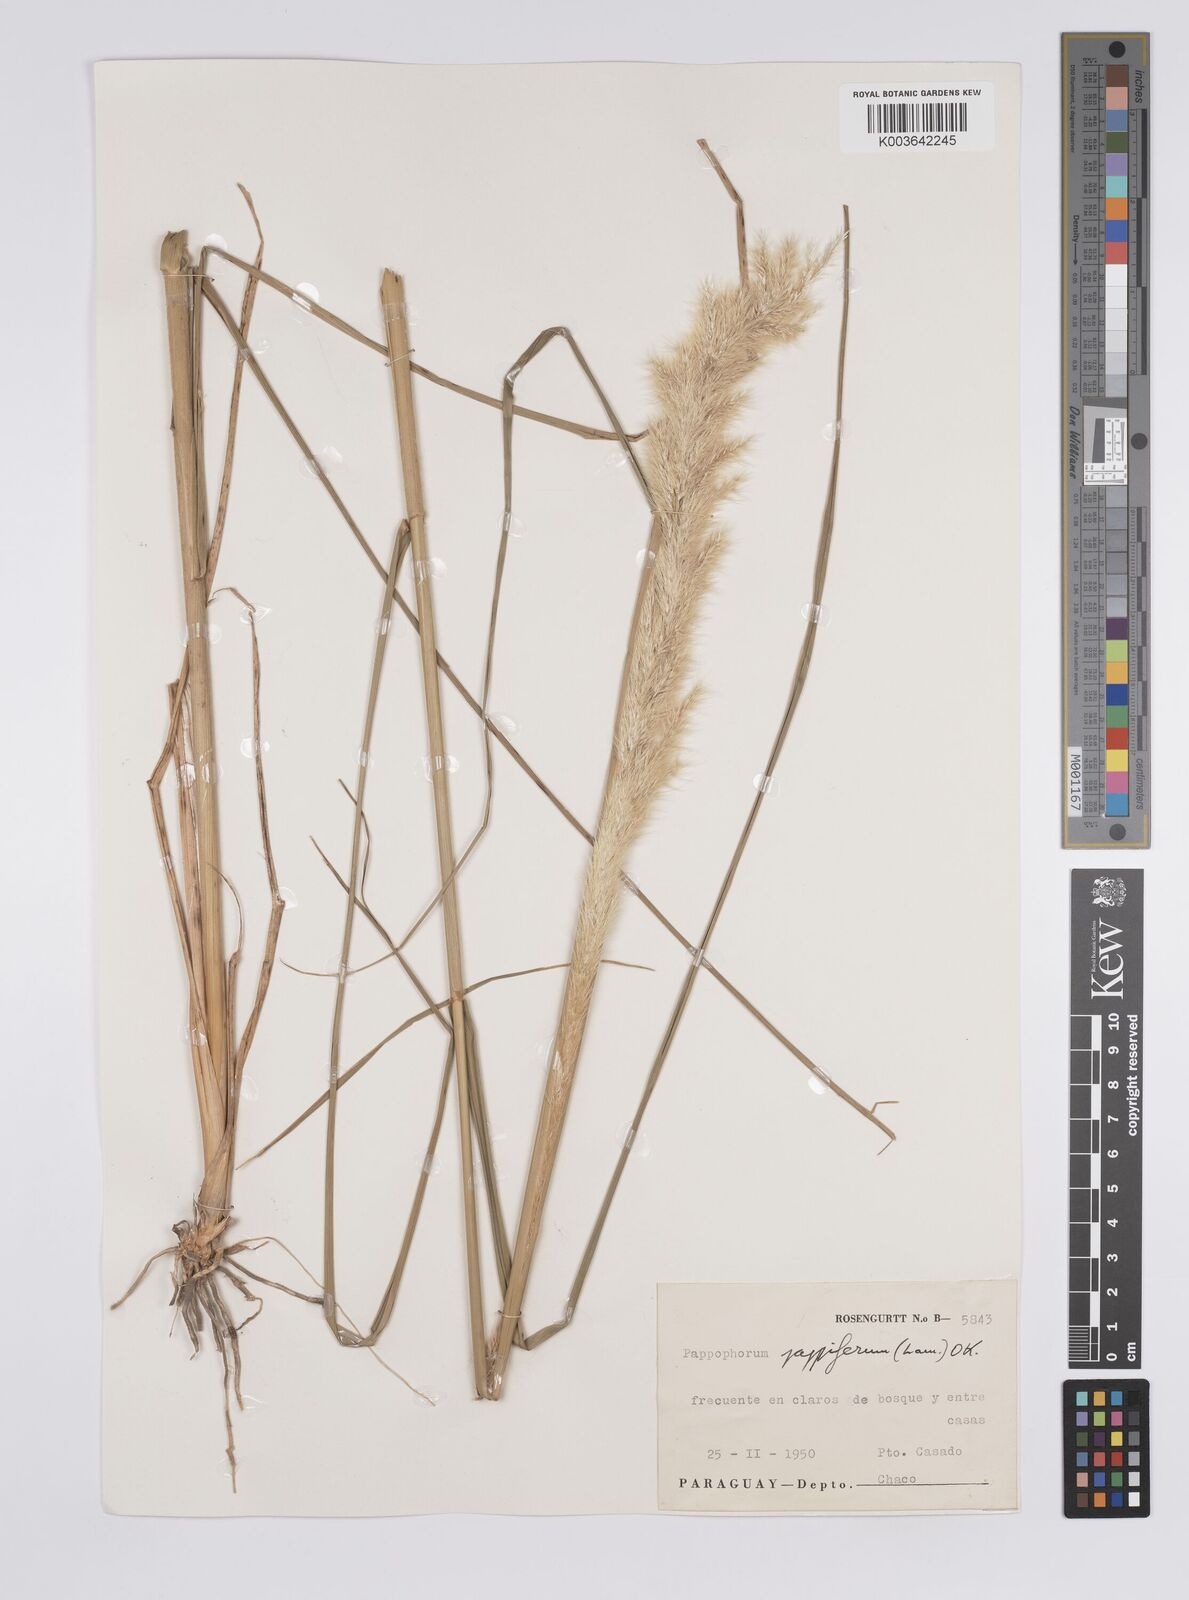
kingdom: Plantae
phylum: Tracheophyta
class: Liliopsida
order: Poales
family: Poaceae
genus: Pappophorum
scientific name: Pappophorum pappiferum
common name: Crabgrass
